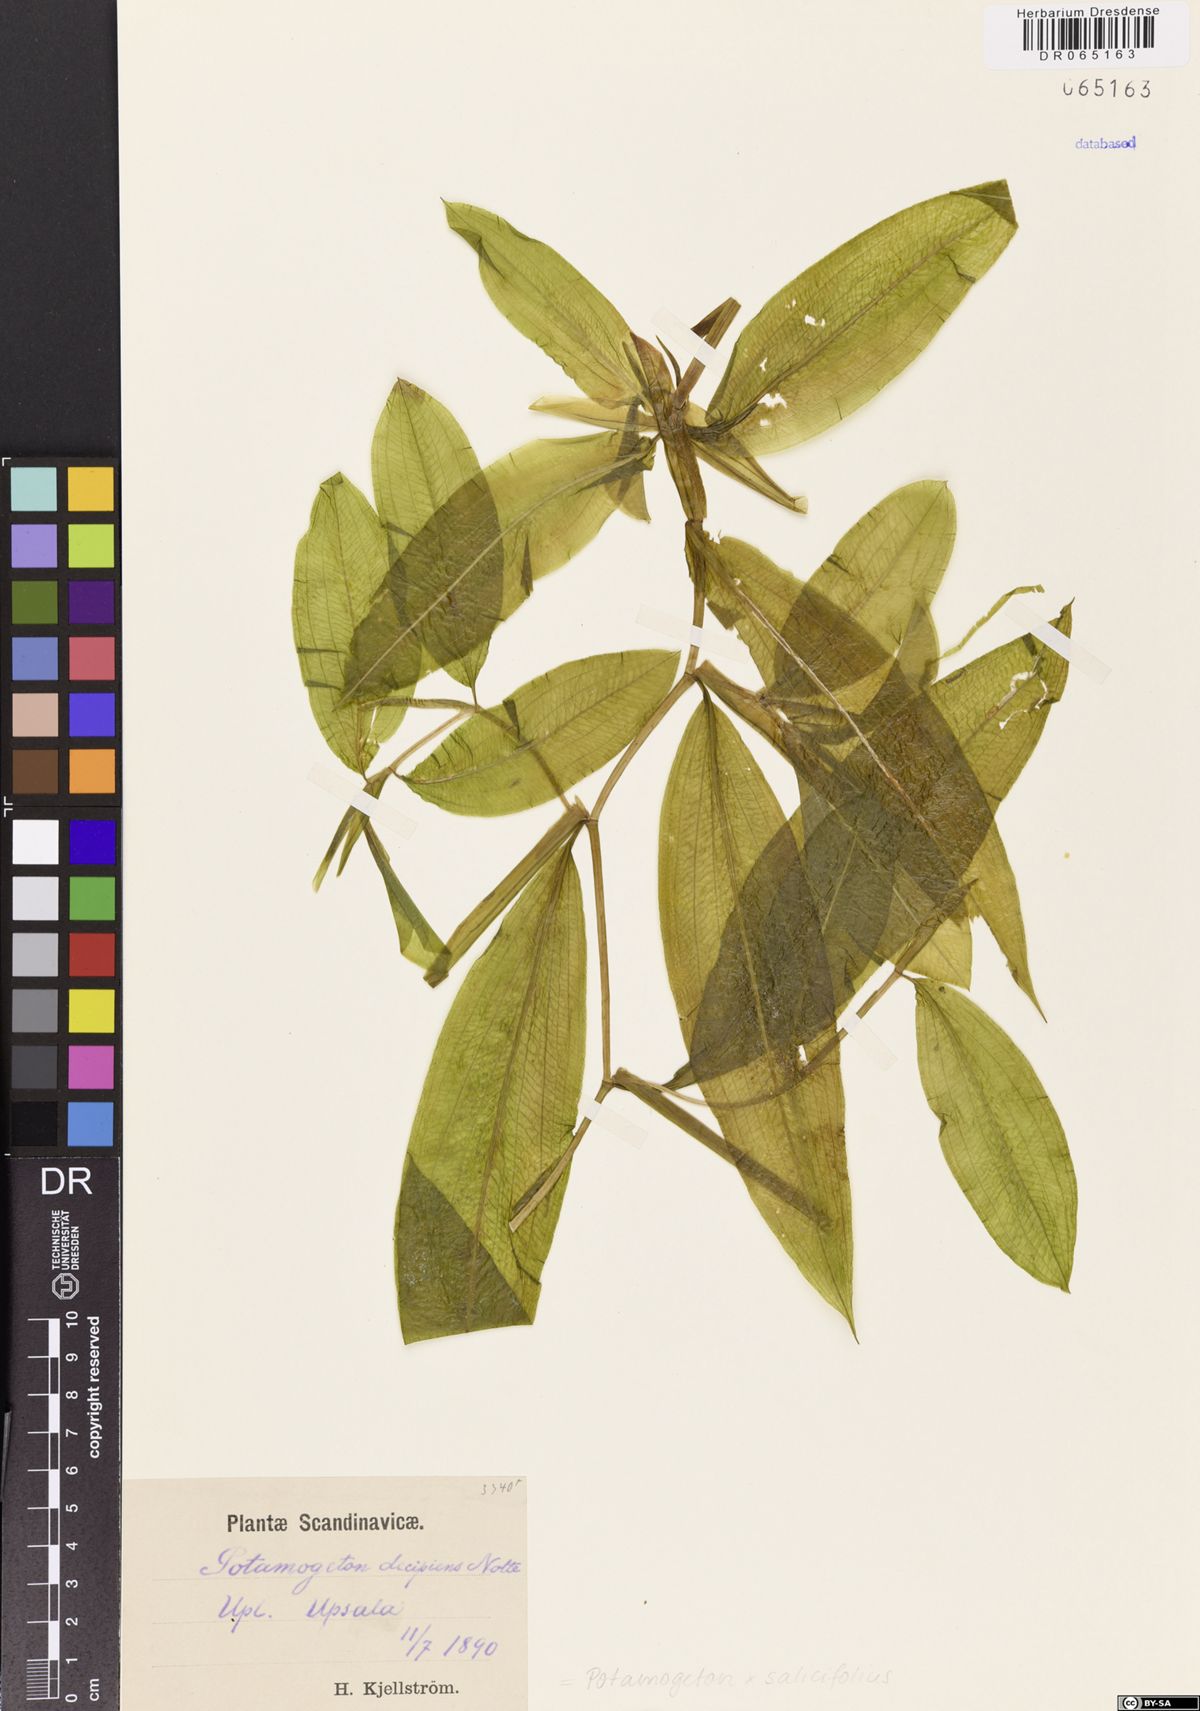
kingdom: Plantae
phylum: Tracheophyta
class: Liliopsida
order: Alismatales
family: Potamogetonaceae
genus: Potamogeton
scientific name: Potamogeton salicifolius
